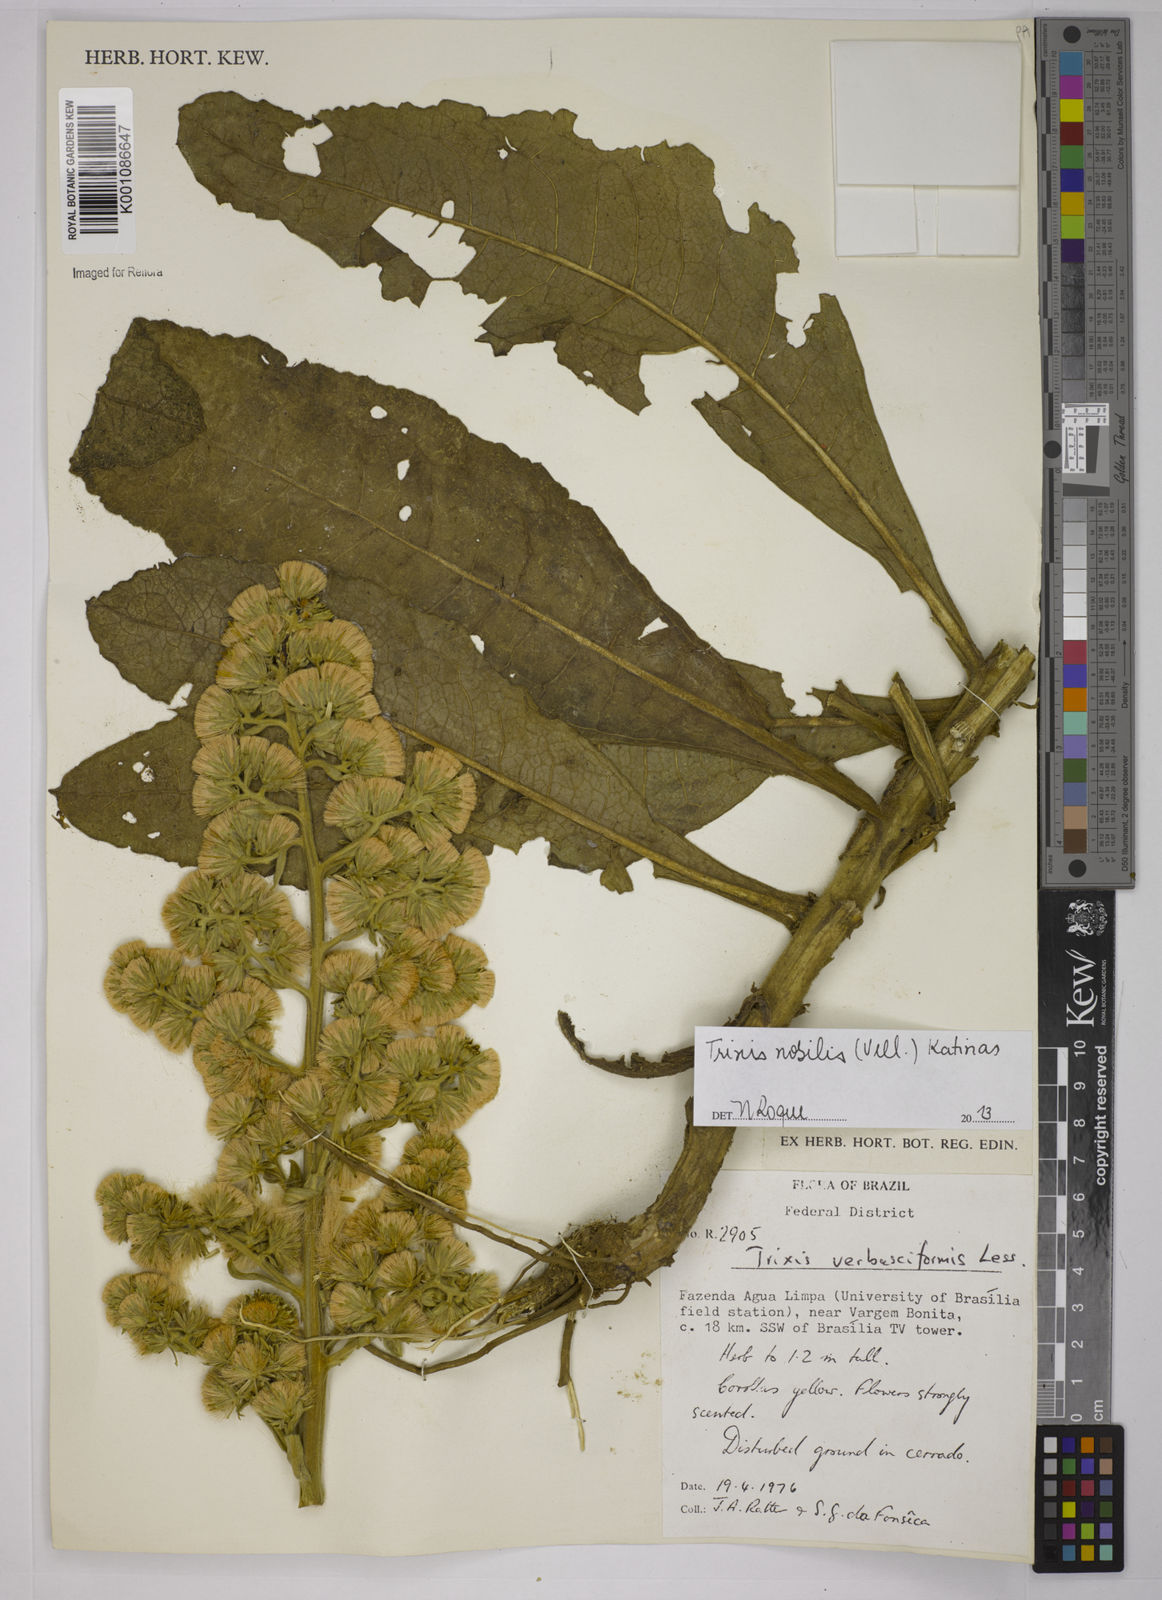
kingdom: Plantae
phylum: Tracheophyta
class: Magnoliopsida
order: Asterales
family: Asteraceae
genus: Trixis
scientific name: Trixis nobilis
